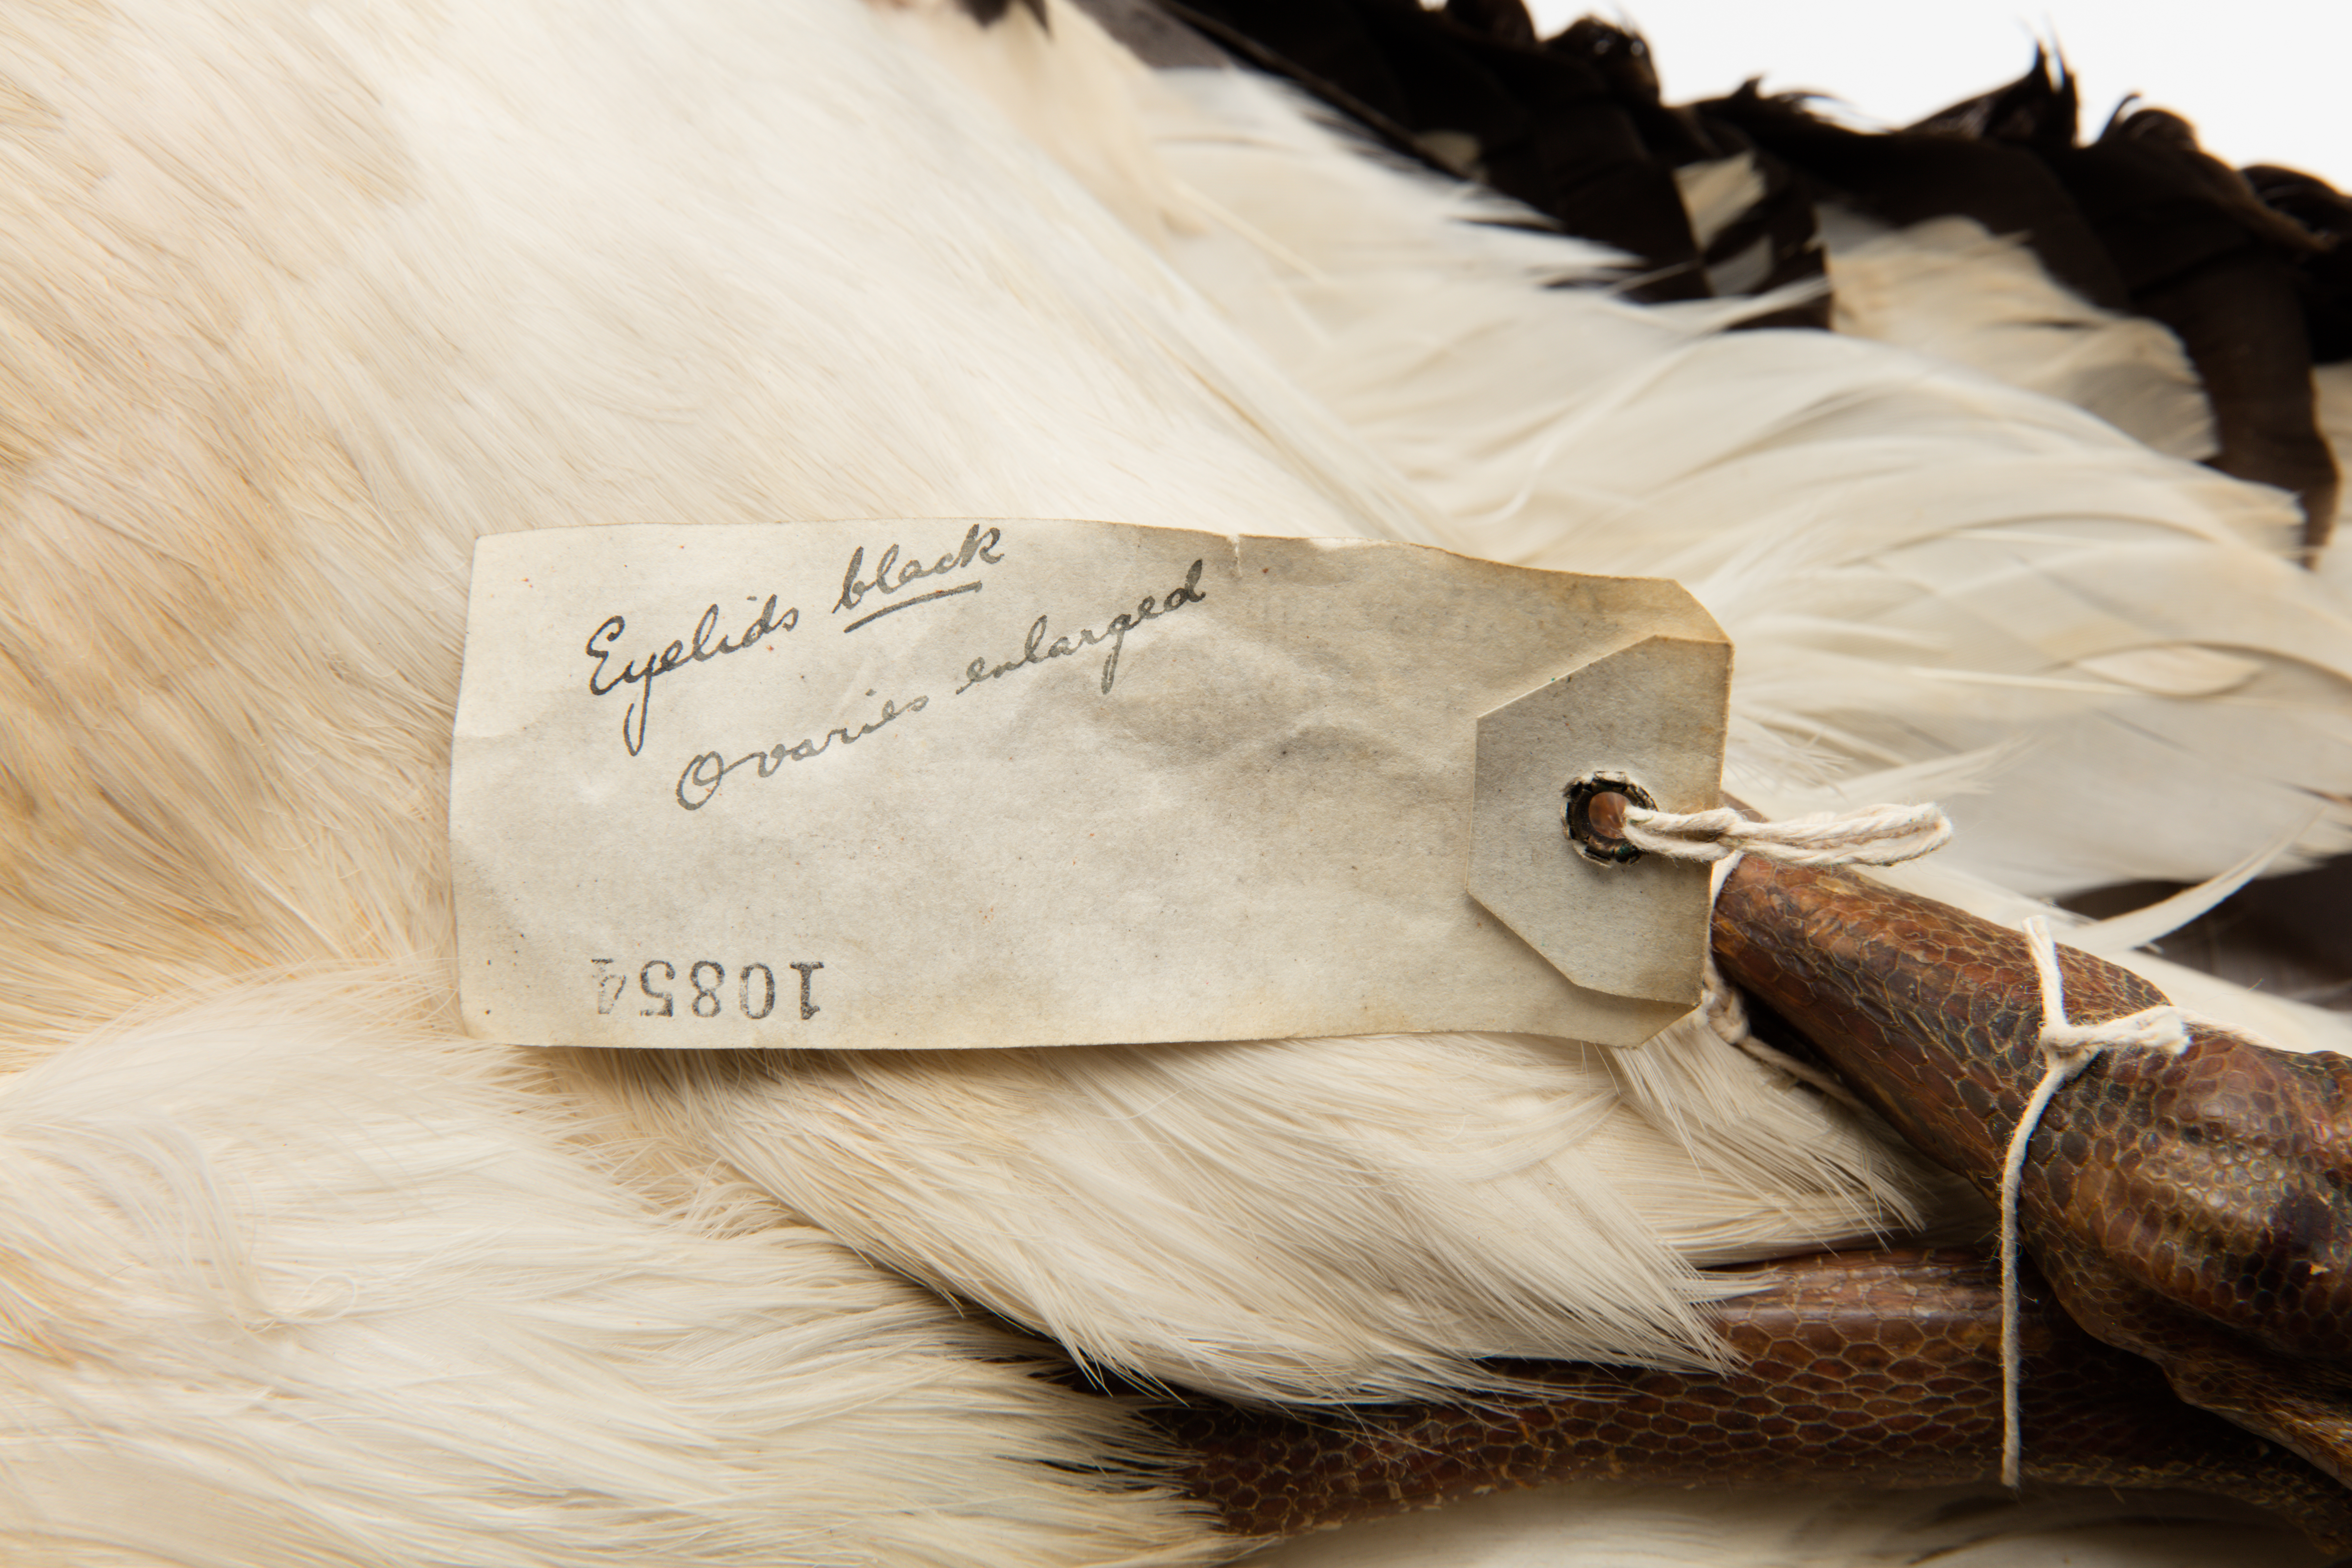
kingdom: Animalia
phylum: Chordata
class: Aves
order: Procellariiformes
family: Diomedeidae
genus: Diomedea
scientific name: Diomedea
